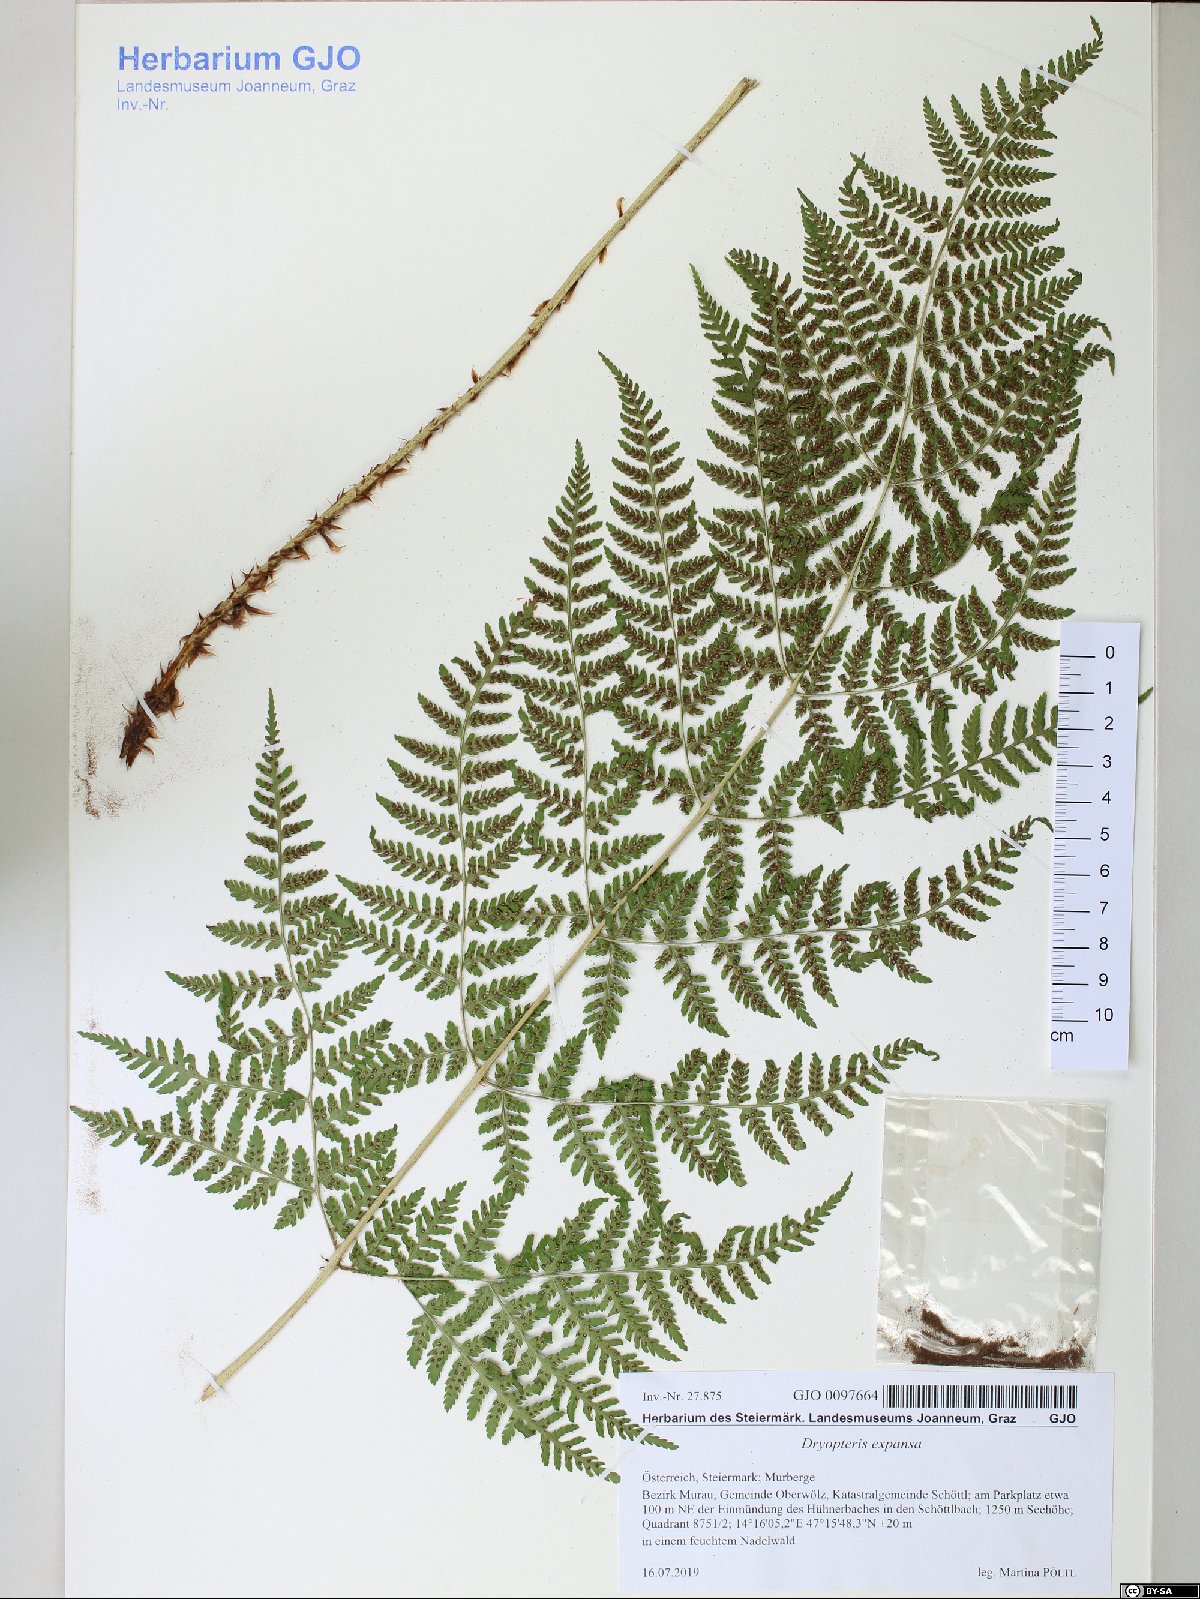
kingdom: Plantae
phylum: Tracheophyta
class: Polypodiopsida
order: Polypodiales
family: Dryopteridaceae
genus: Dryopteris
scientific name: Dryopteris expansa
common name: Northern buckler fern
